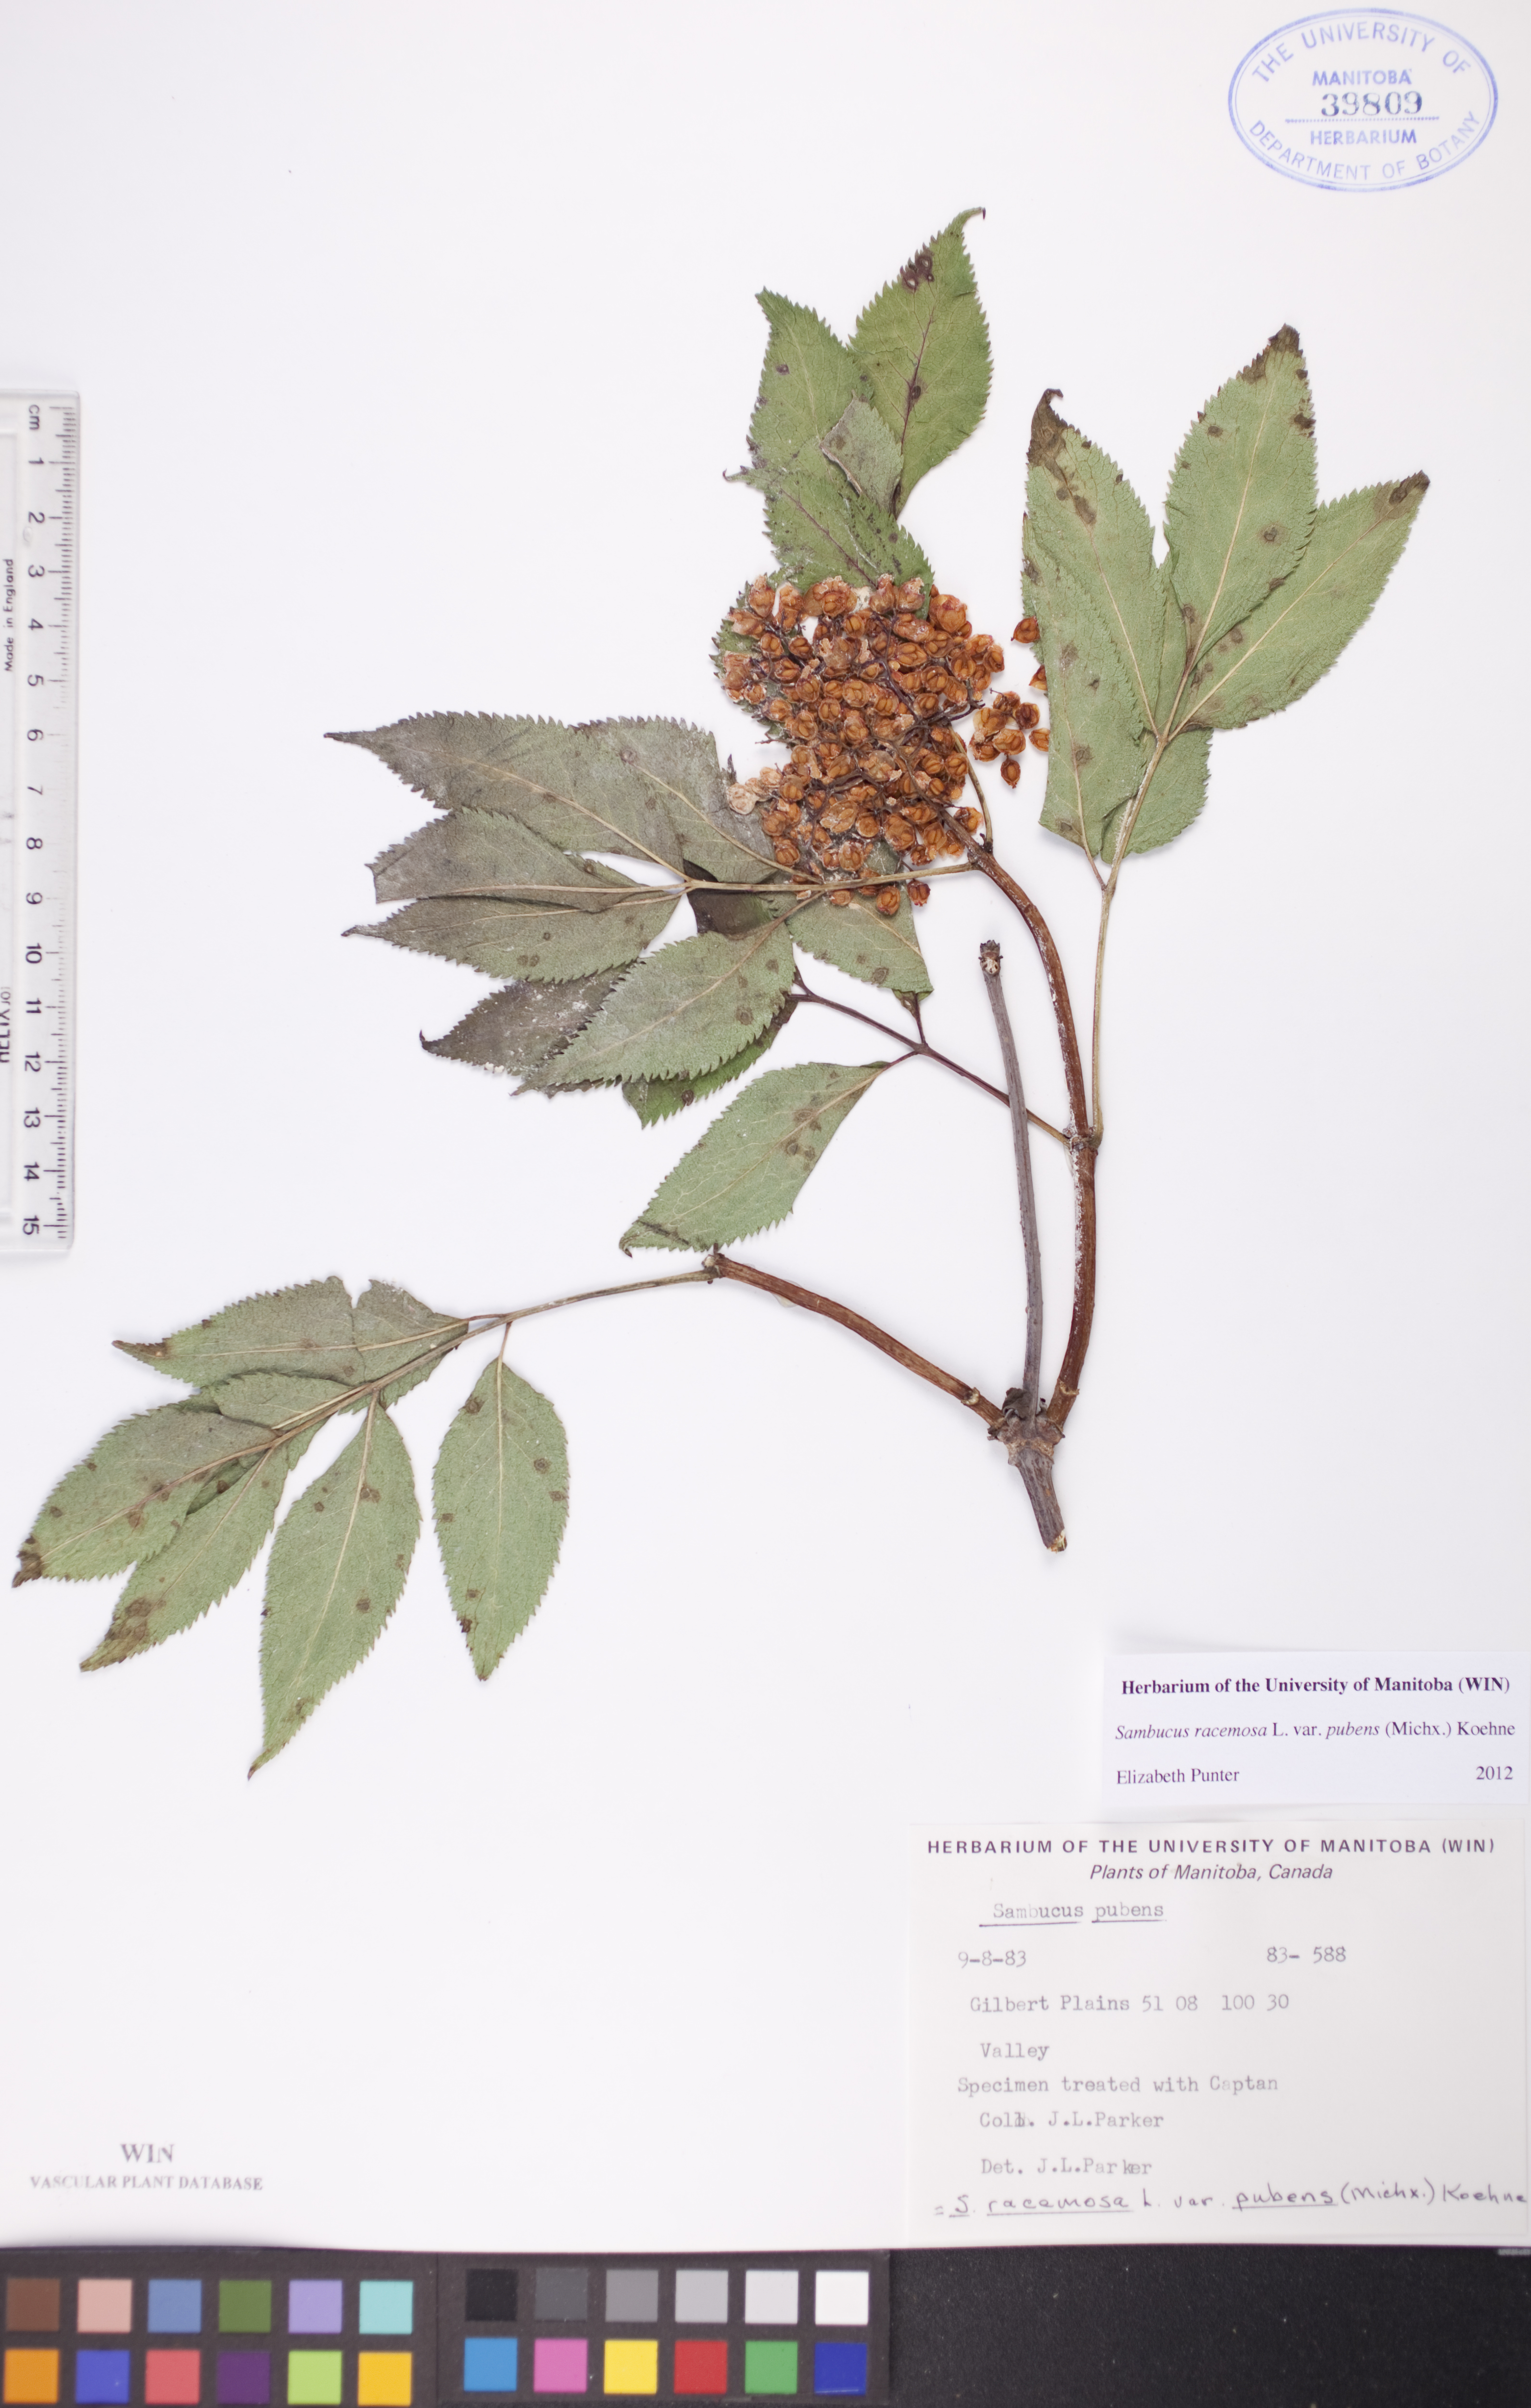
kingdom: Plantae
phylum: Tracheophyta
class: Magnoliopsida
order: Dipsacales
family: Viburnaceae
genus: Sambucus
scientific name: Sambucus racemosa
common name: Red-berried elder
